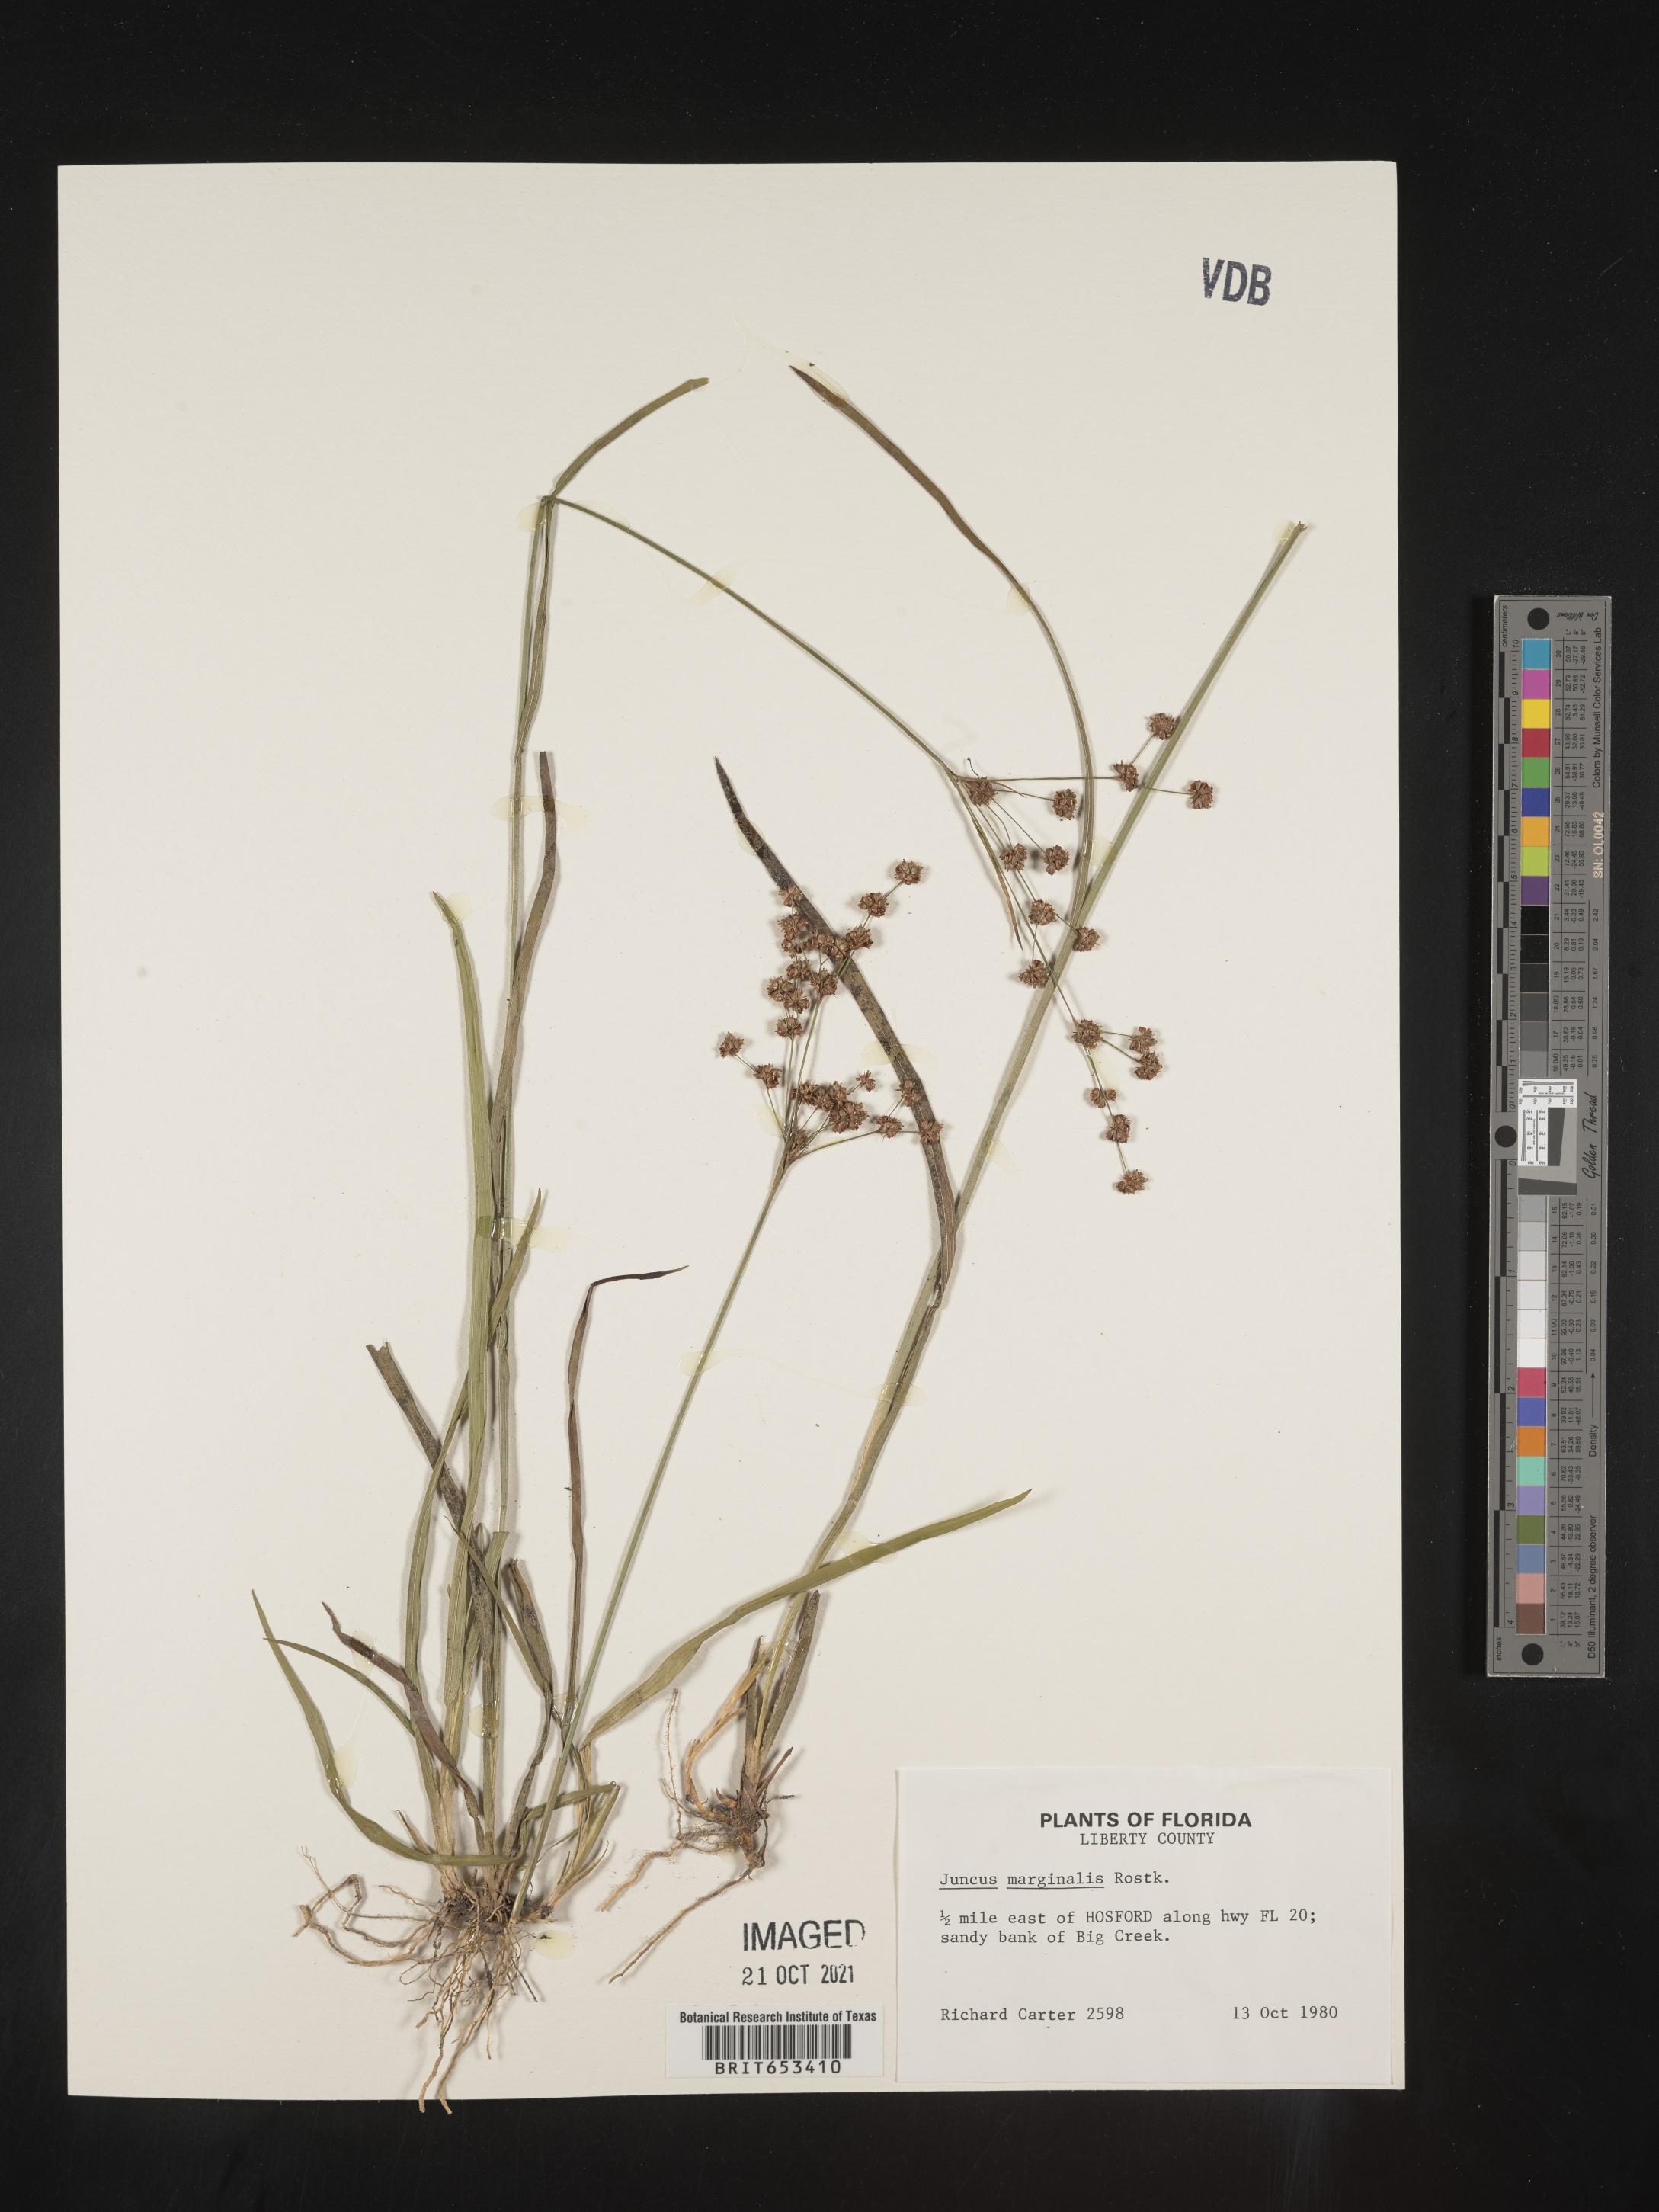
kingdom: Plantae
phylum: Tracheophyta
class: Liliopsida
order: Poales
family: Juncaceae
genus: Juncus
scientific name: Juncus marginatus
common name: Grass-leaf rush
